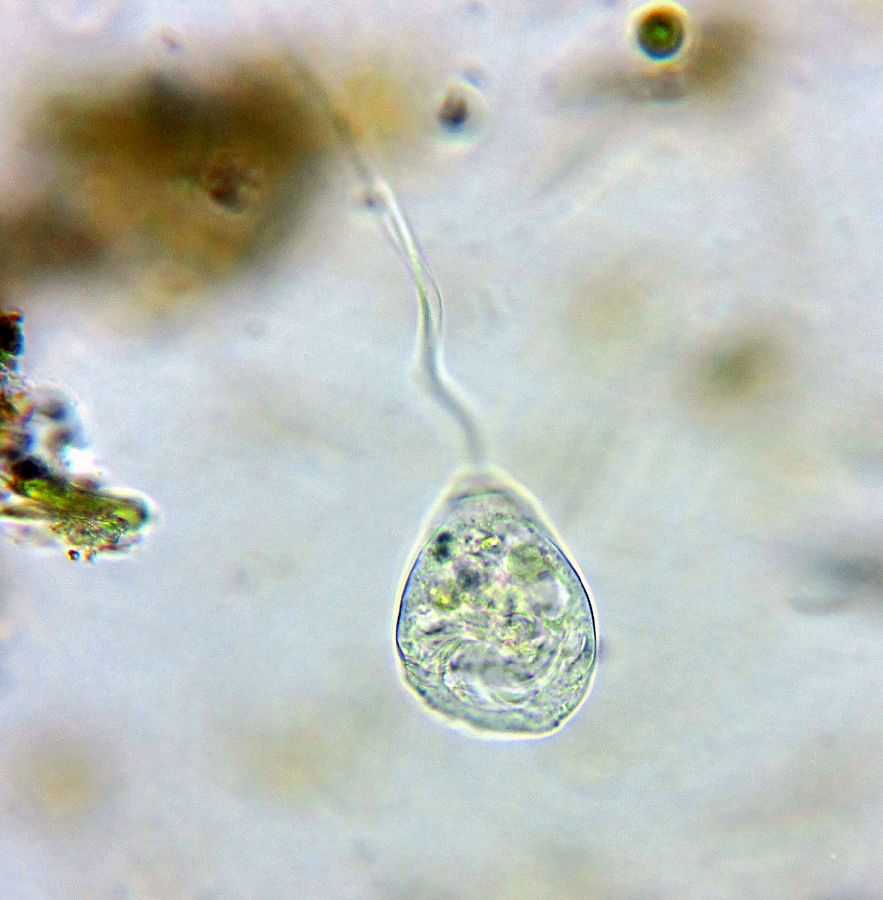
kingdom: Chromista
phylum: Ciliophora
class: Oligohymenophorea
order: Peritrichida
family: Vorticellidae
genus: Vorticella
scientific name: Vorticella citrina
